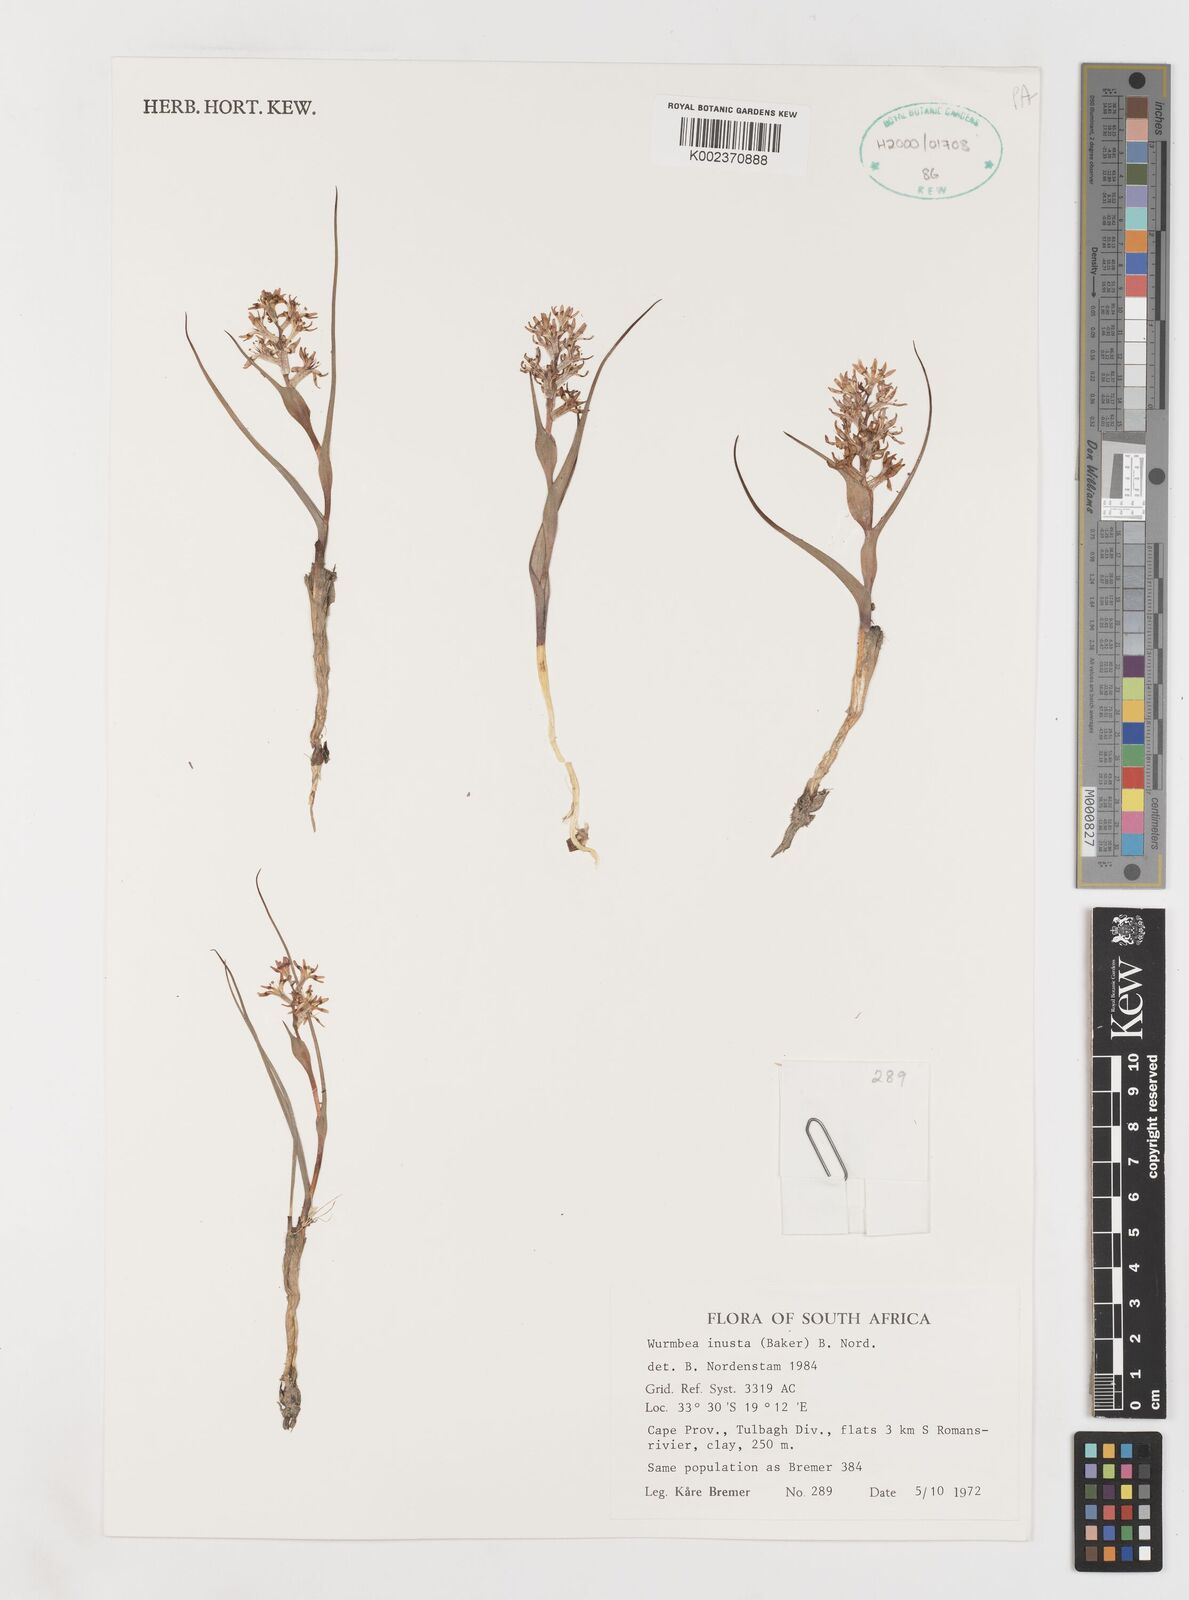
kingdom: Plantae
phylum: Tracheophyta
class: Liliopsida
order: Liliales
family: Colchicaceae
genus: Wurmbea
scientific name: Wurmbea inusta
